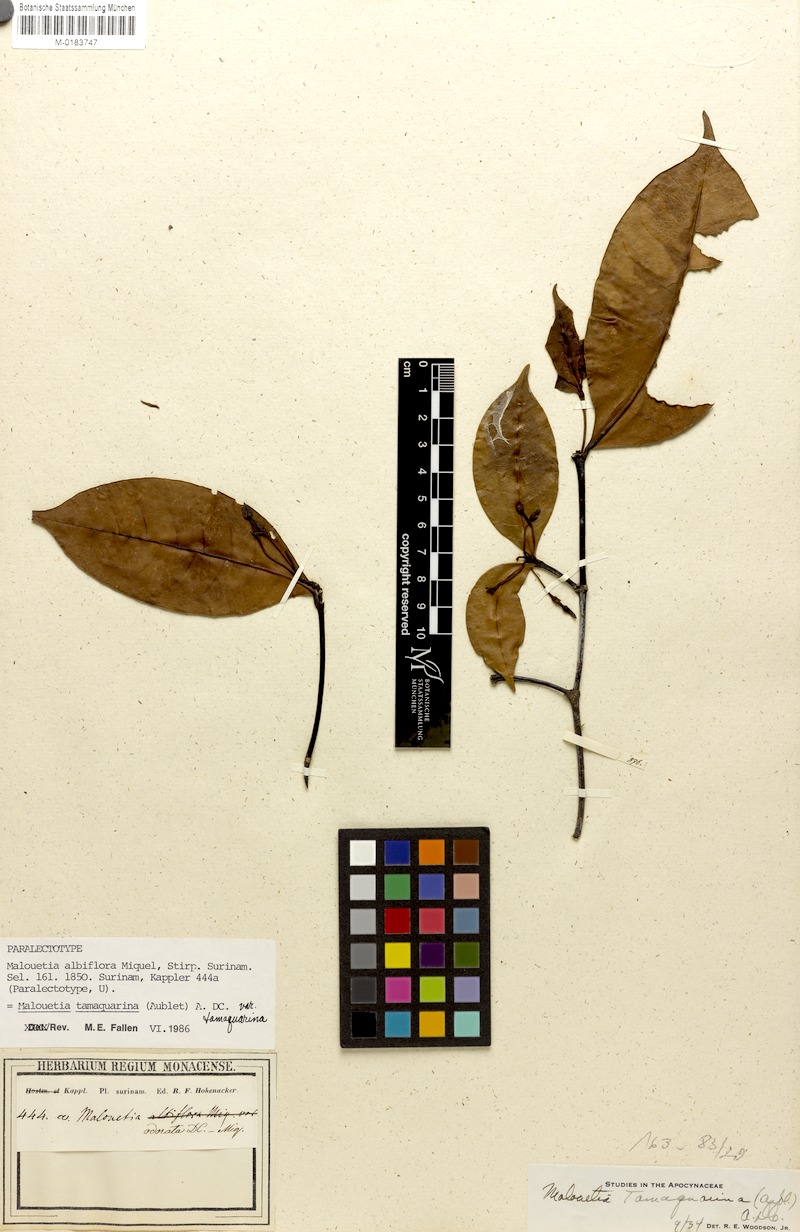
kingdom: Plantae
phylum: Tracheophyta
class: Magnoliopsida
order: Gentianales
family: Apocynaceae
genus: Malouetia
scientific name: Malouetia tamaquarina
